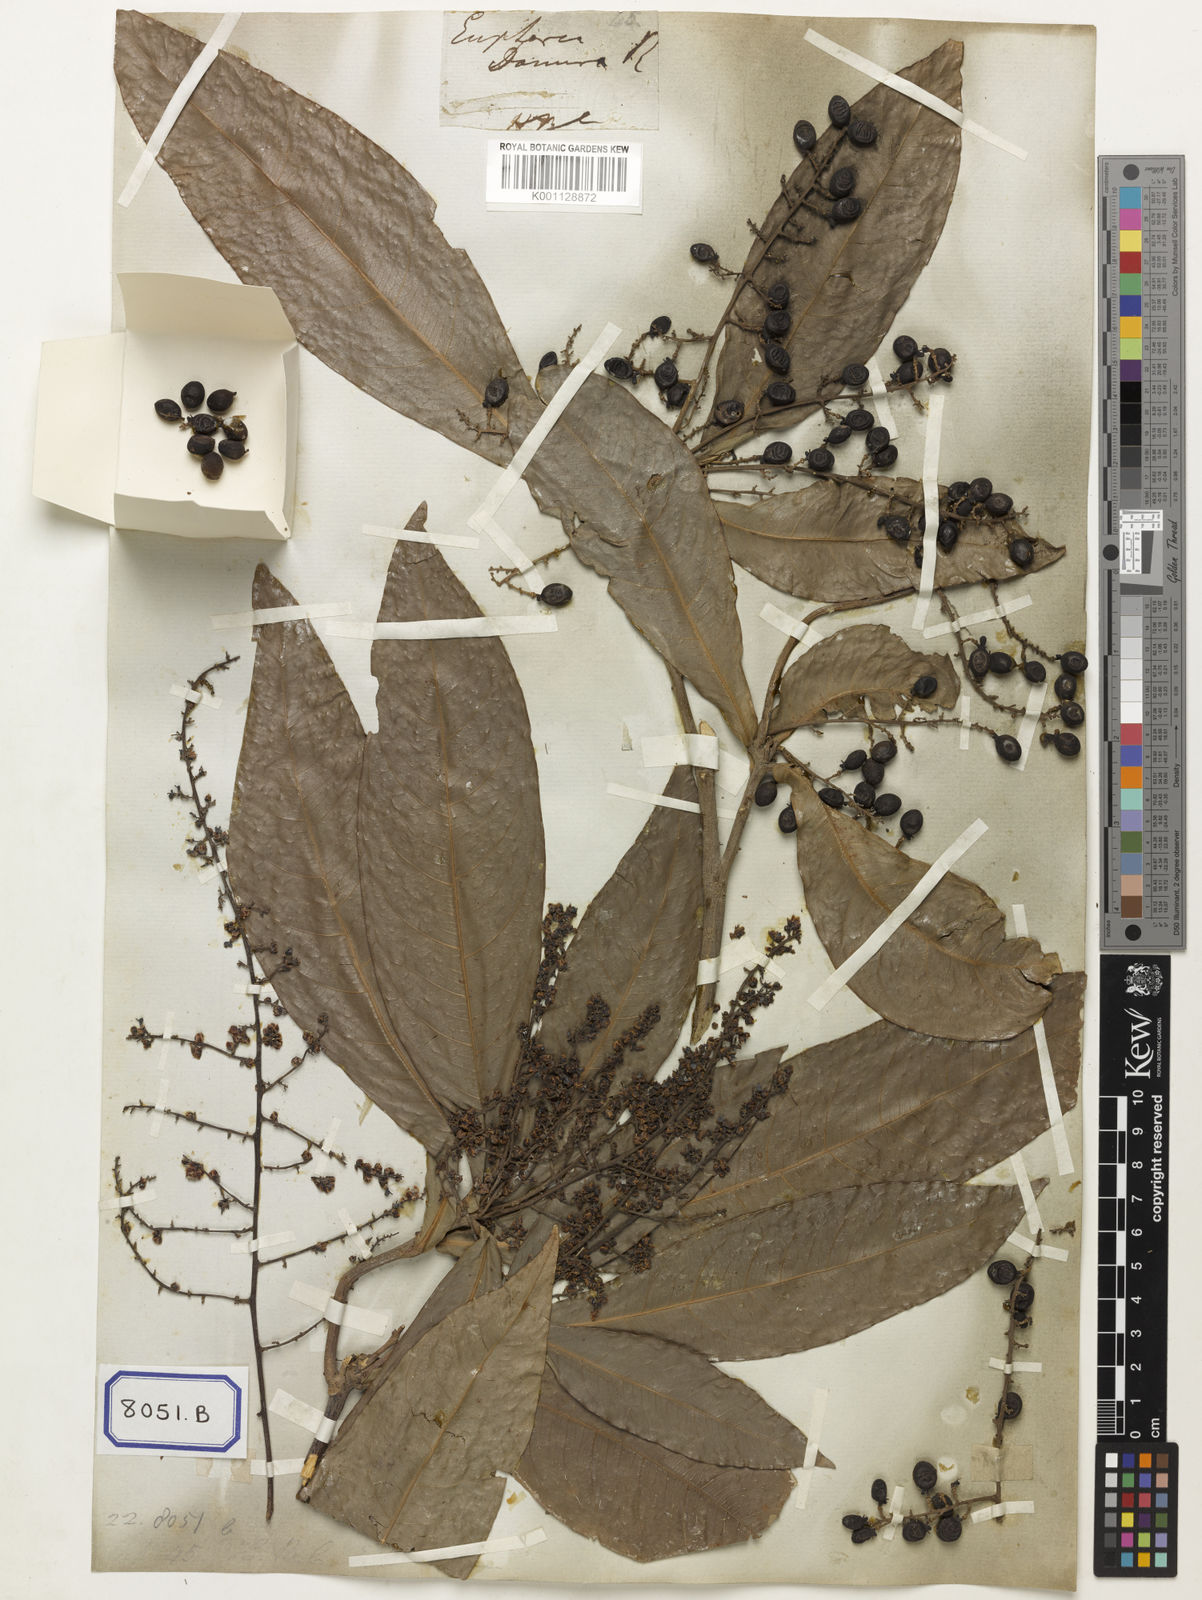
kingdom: Plantae
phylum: Tracheophyta
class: Magnoliopsida
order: Sapindales
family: Sapindaceae
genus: Lepisanthes
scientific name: Lepisanthes senegalensis
